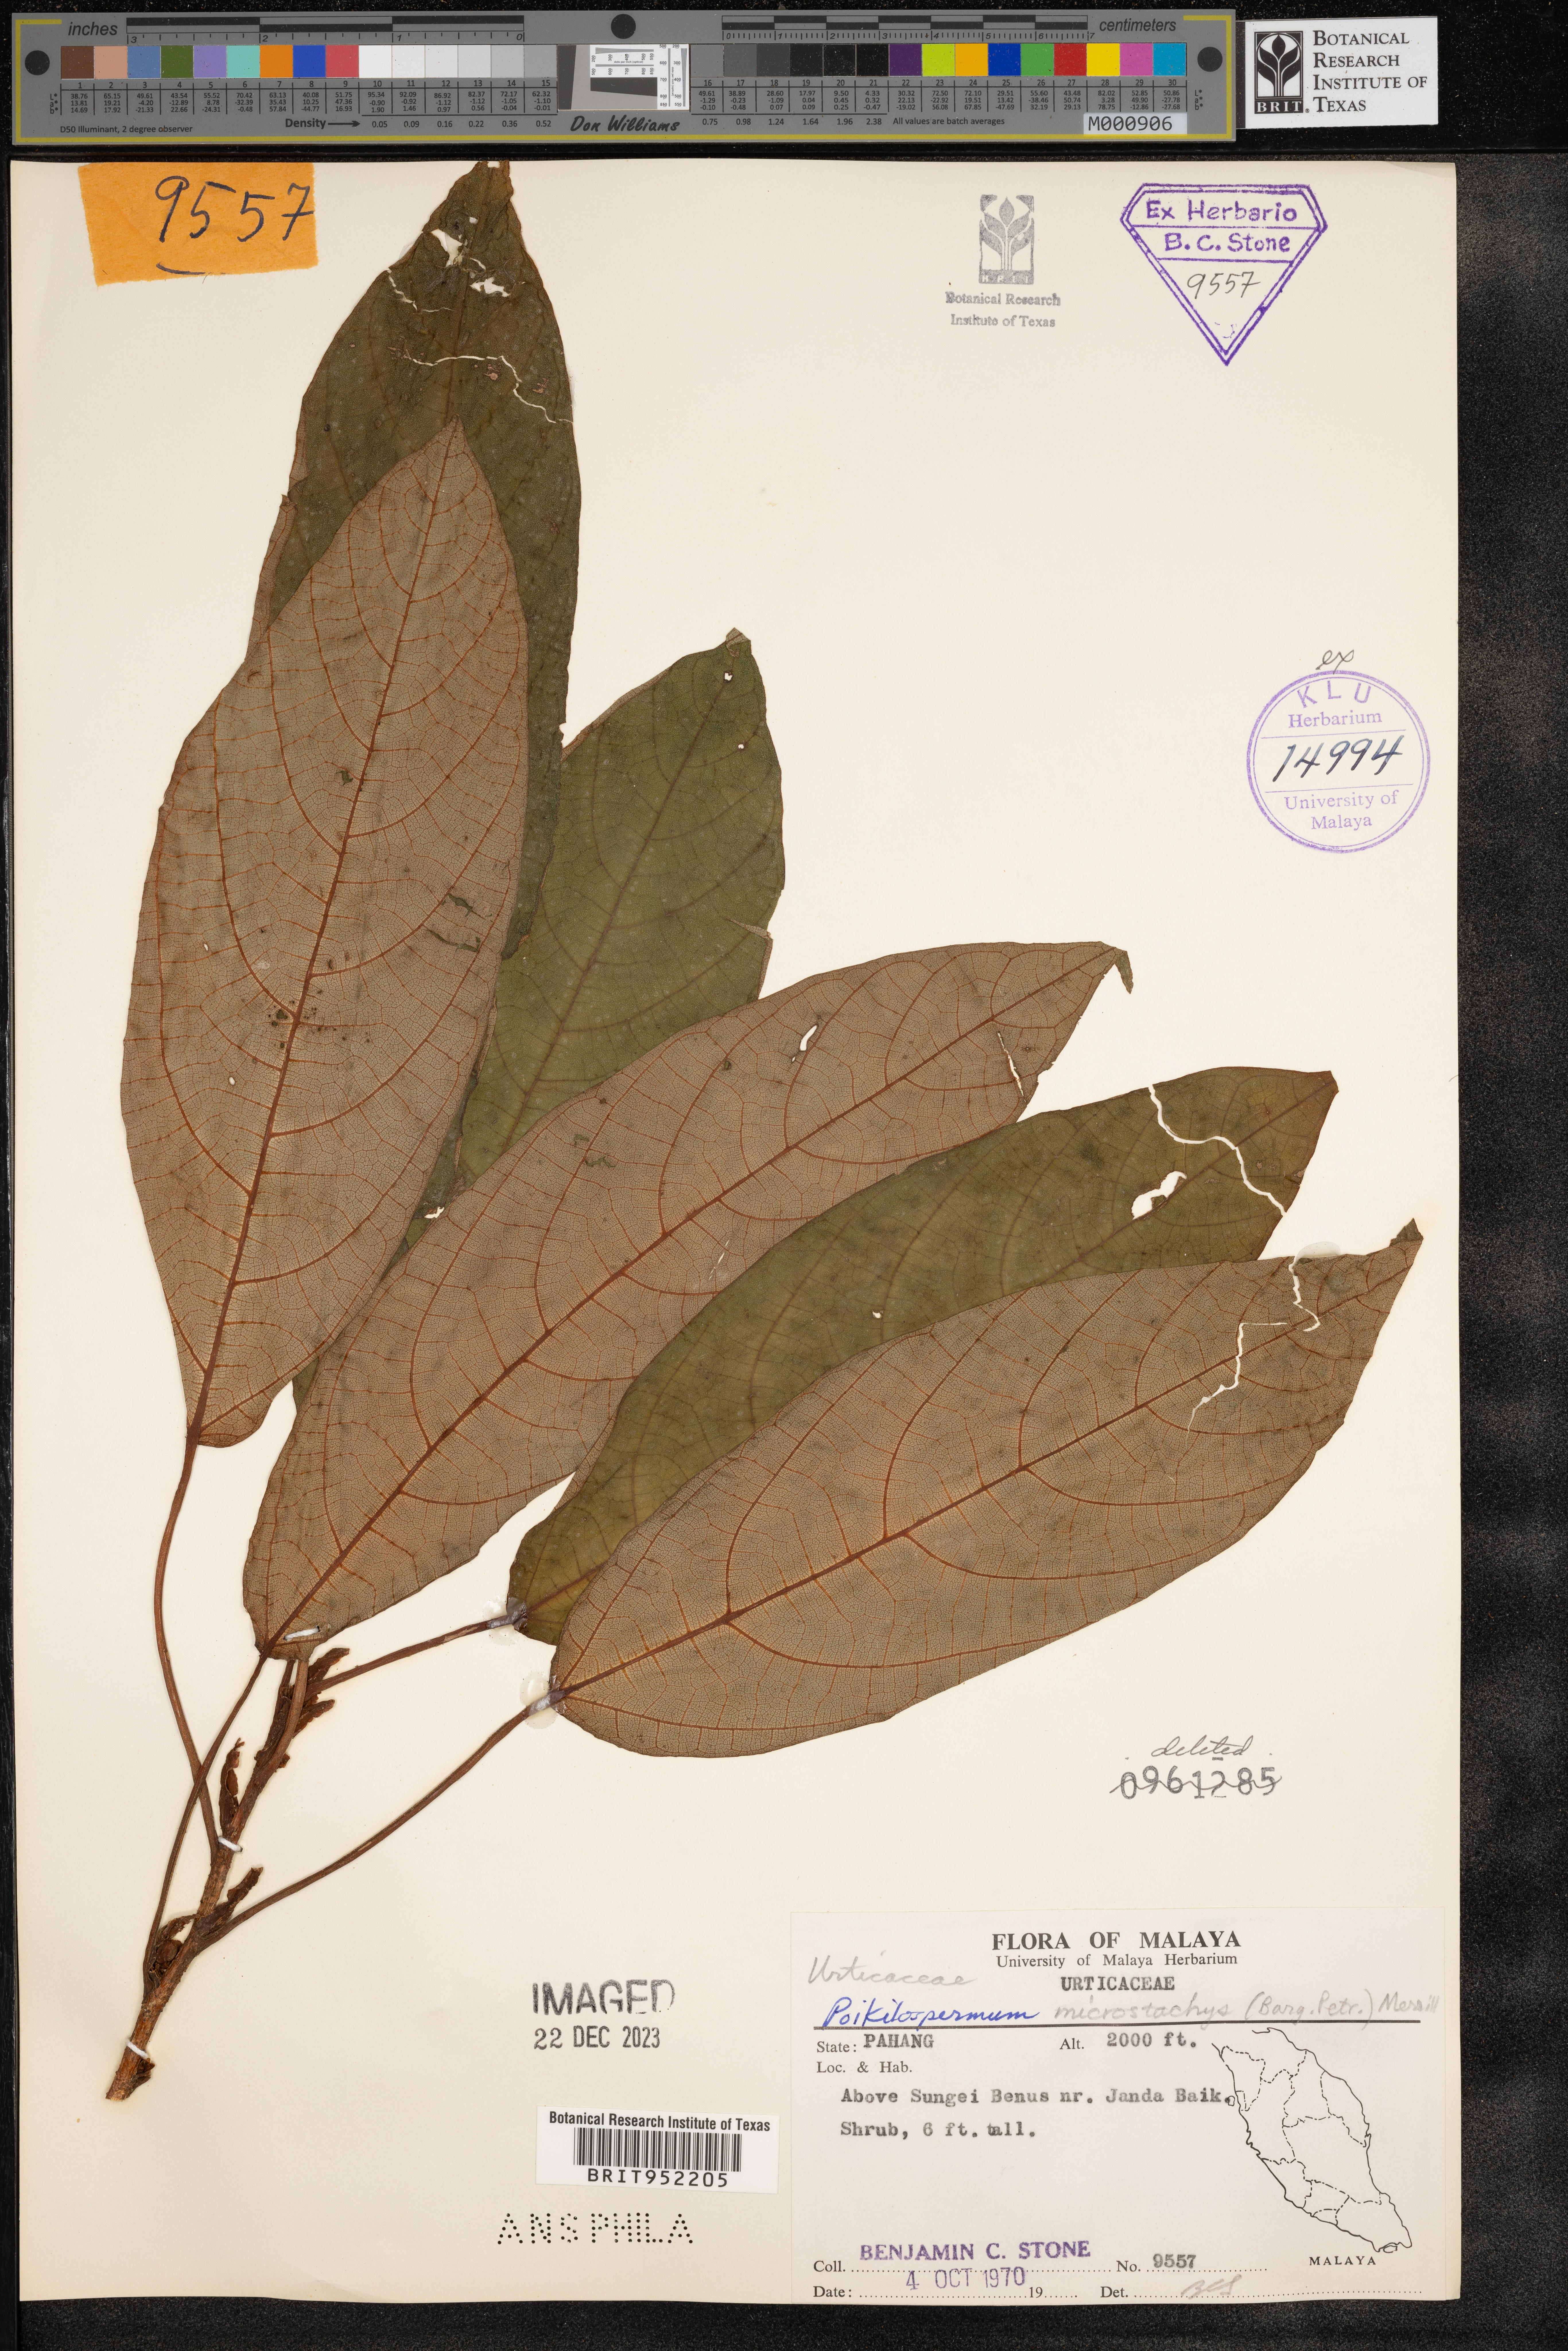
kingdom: Plantae
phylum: Tracheophyta
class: Magnoliopsida
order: Rosales
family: Urticaceae
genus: Poikilospermum
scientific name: Poikilospermum
